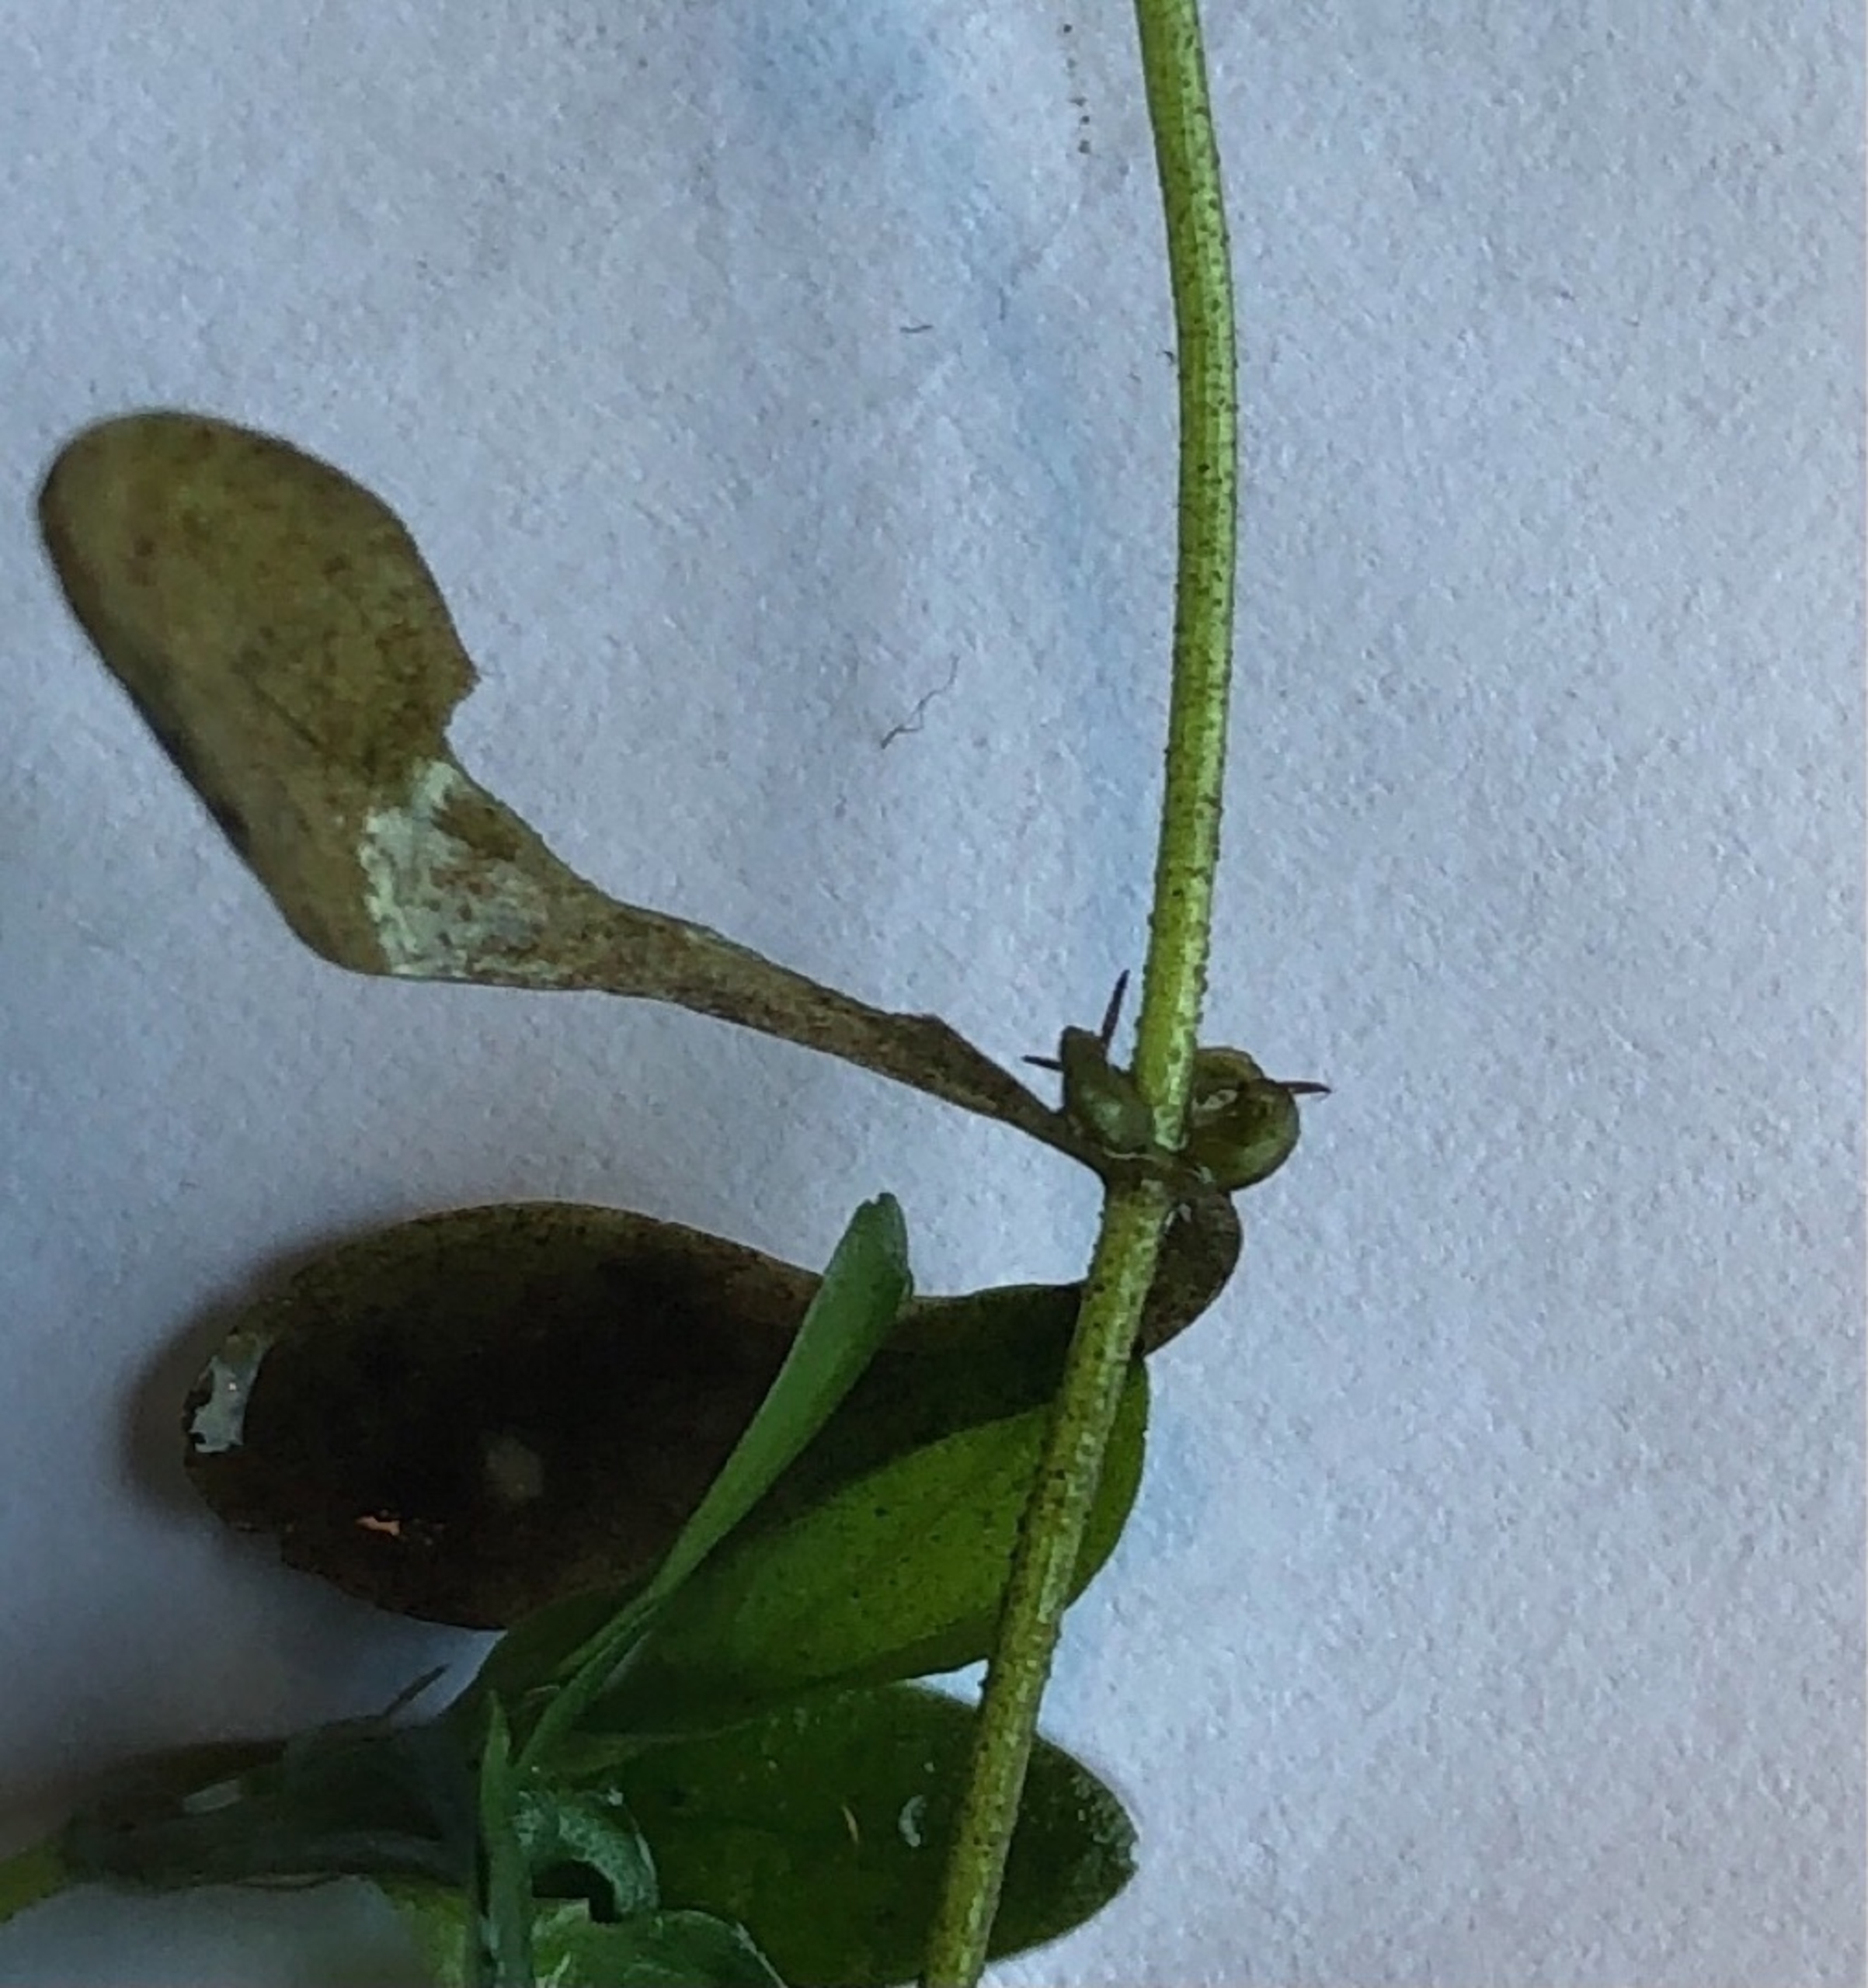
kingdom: Plantae
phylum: Tracheophyta
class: Magnoliopsida
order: Lamiales
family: Plantaginaceae
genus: Callitriche
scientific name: Callitriche
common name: Vandstjerneslægten
